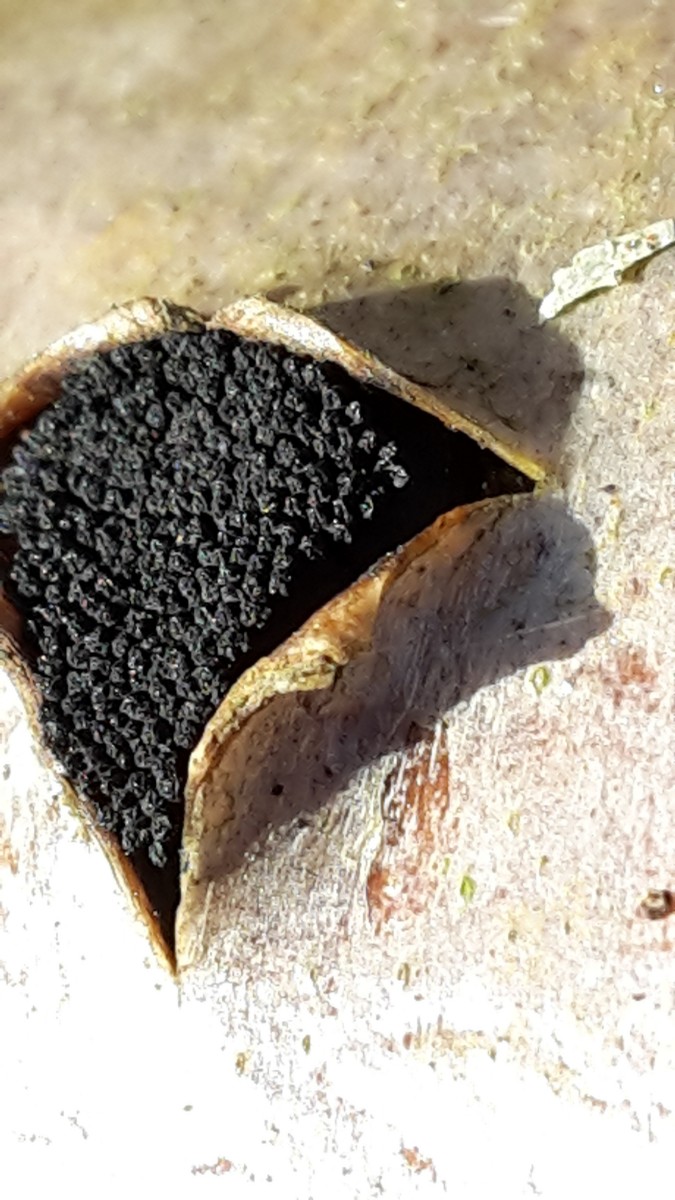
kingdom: Fungi
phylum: Ascomycota
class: Sordariomycetes
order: Xylariales
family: Diatrypaceae
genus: Eutypella
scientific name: Eutypella sorbi
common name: rønne-kulskorpe
